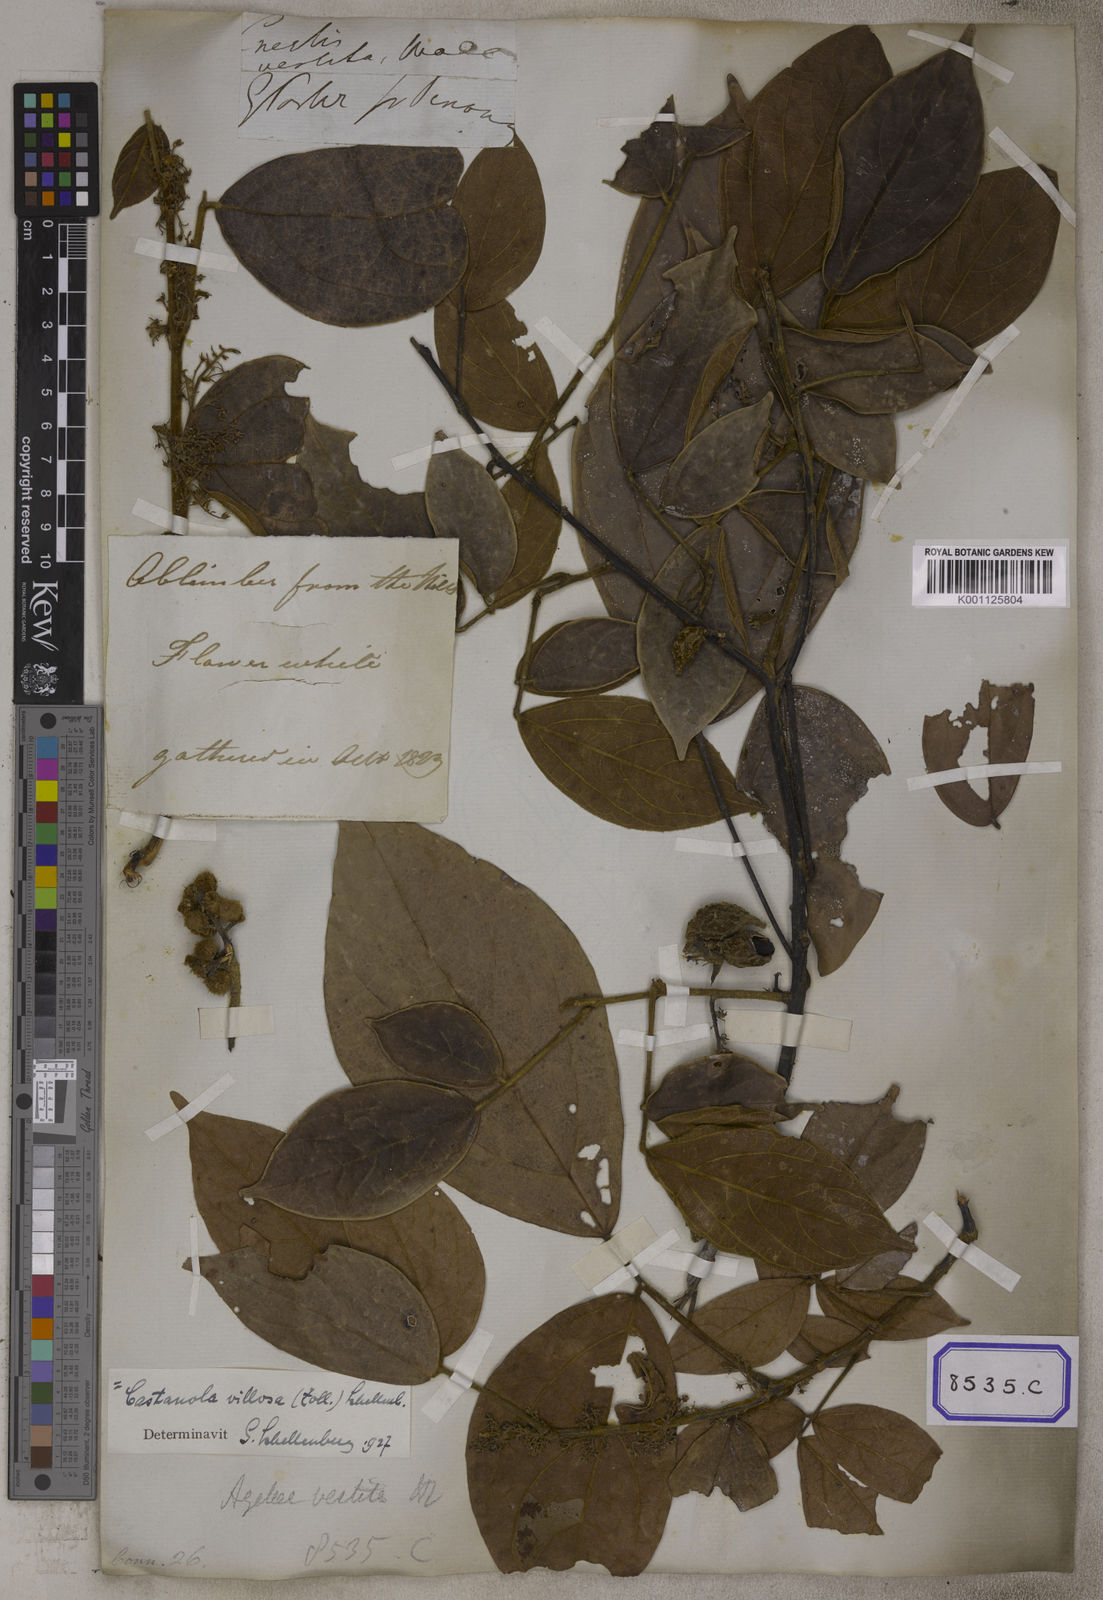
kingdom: Plantae
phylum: Tracheophyta
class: Magnoliopsida
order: Oxalidales
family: Connaraceae
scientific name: Connaraceae
